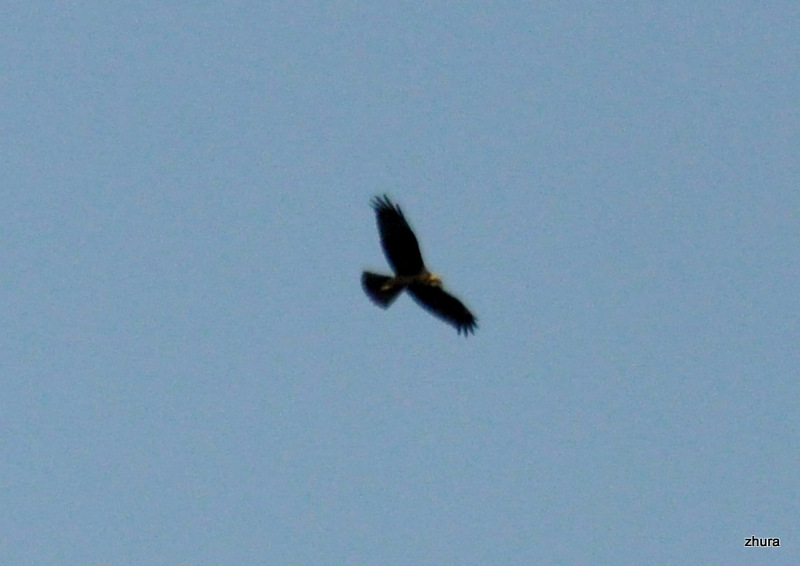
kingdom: Animalia
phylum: Chordata
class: Aves
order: Accipitriformes
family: Accipitridae
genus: Circus
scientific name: Circus aeruginosus
